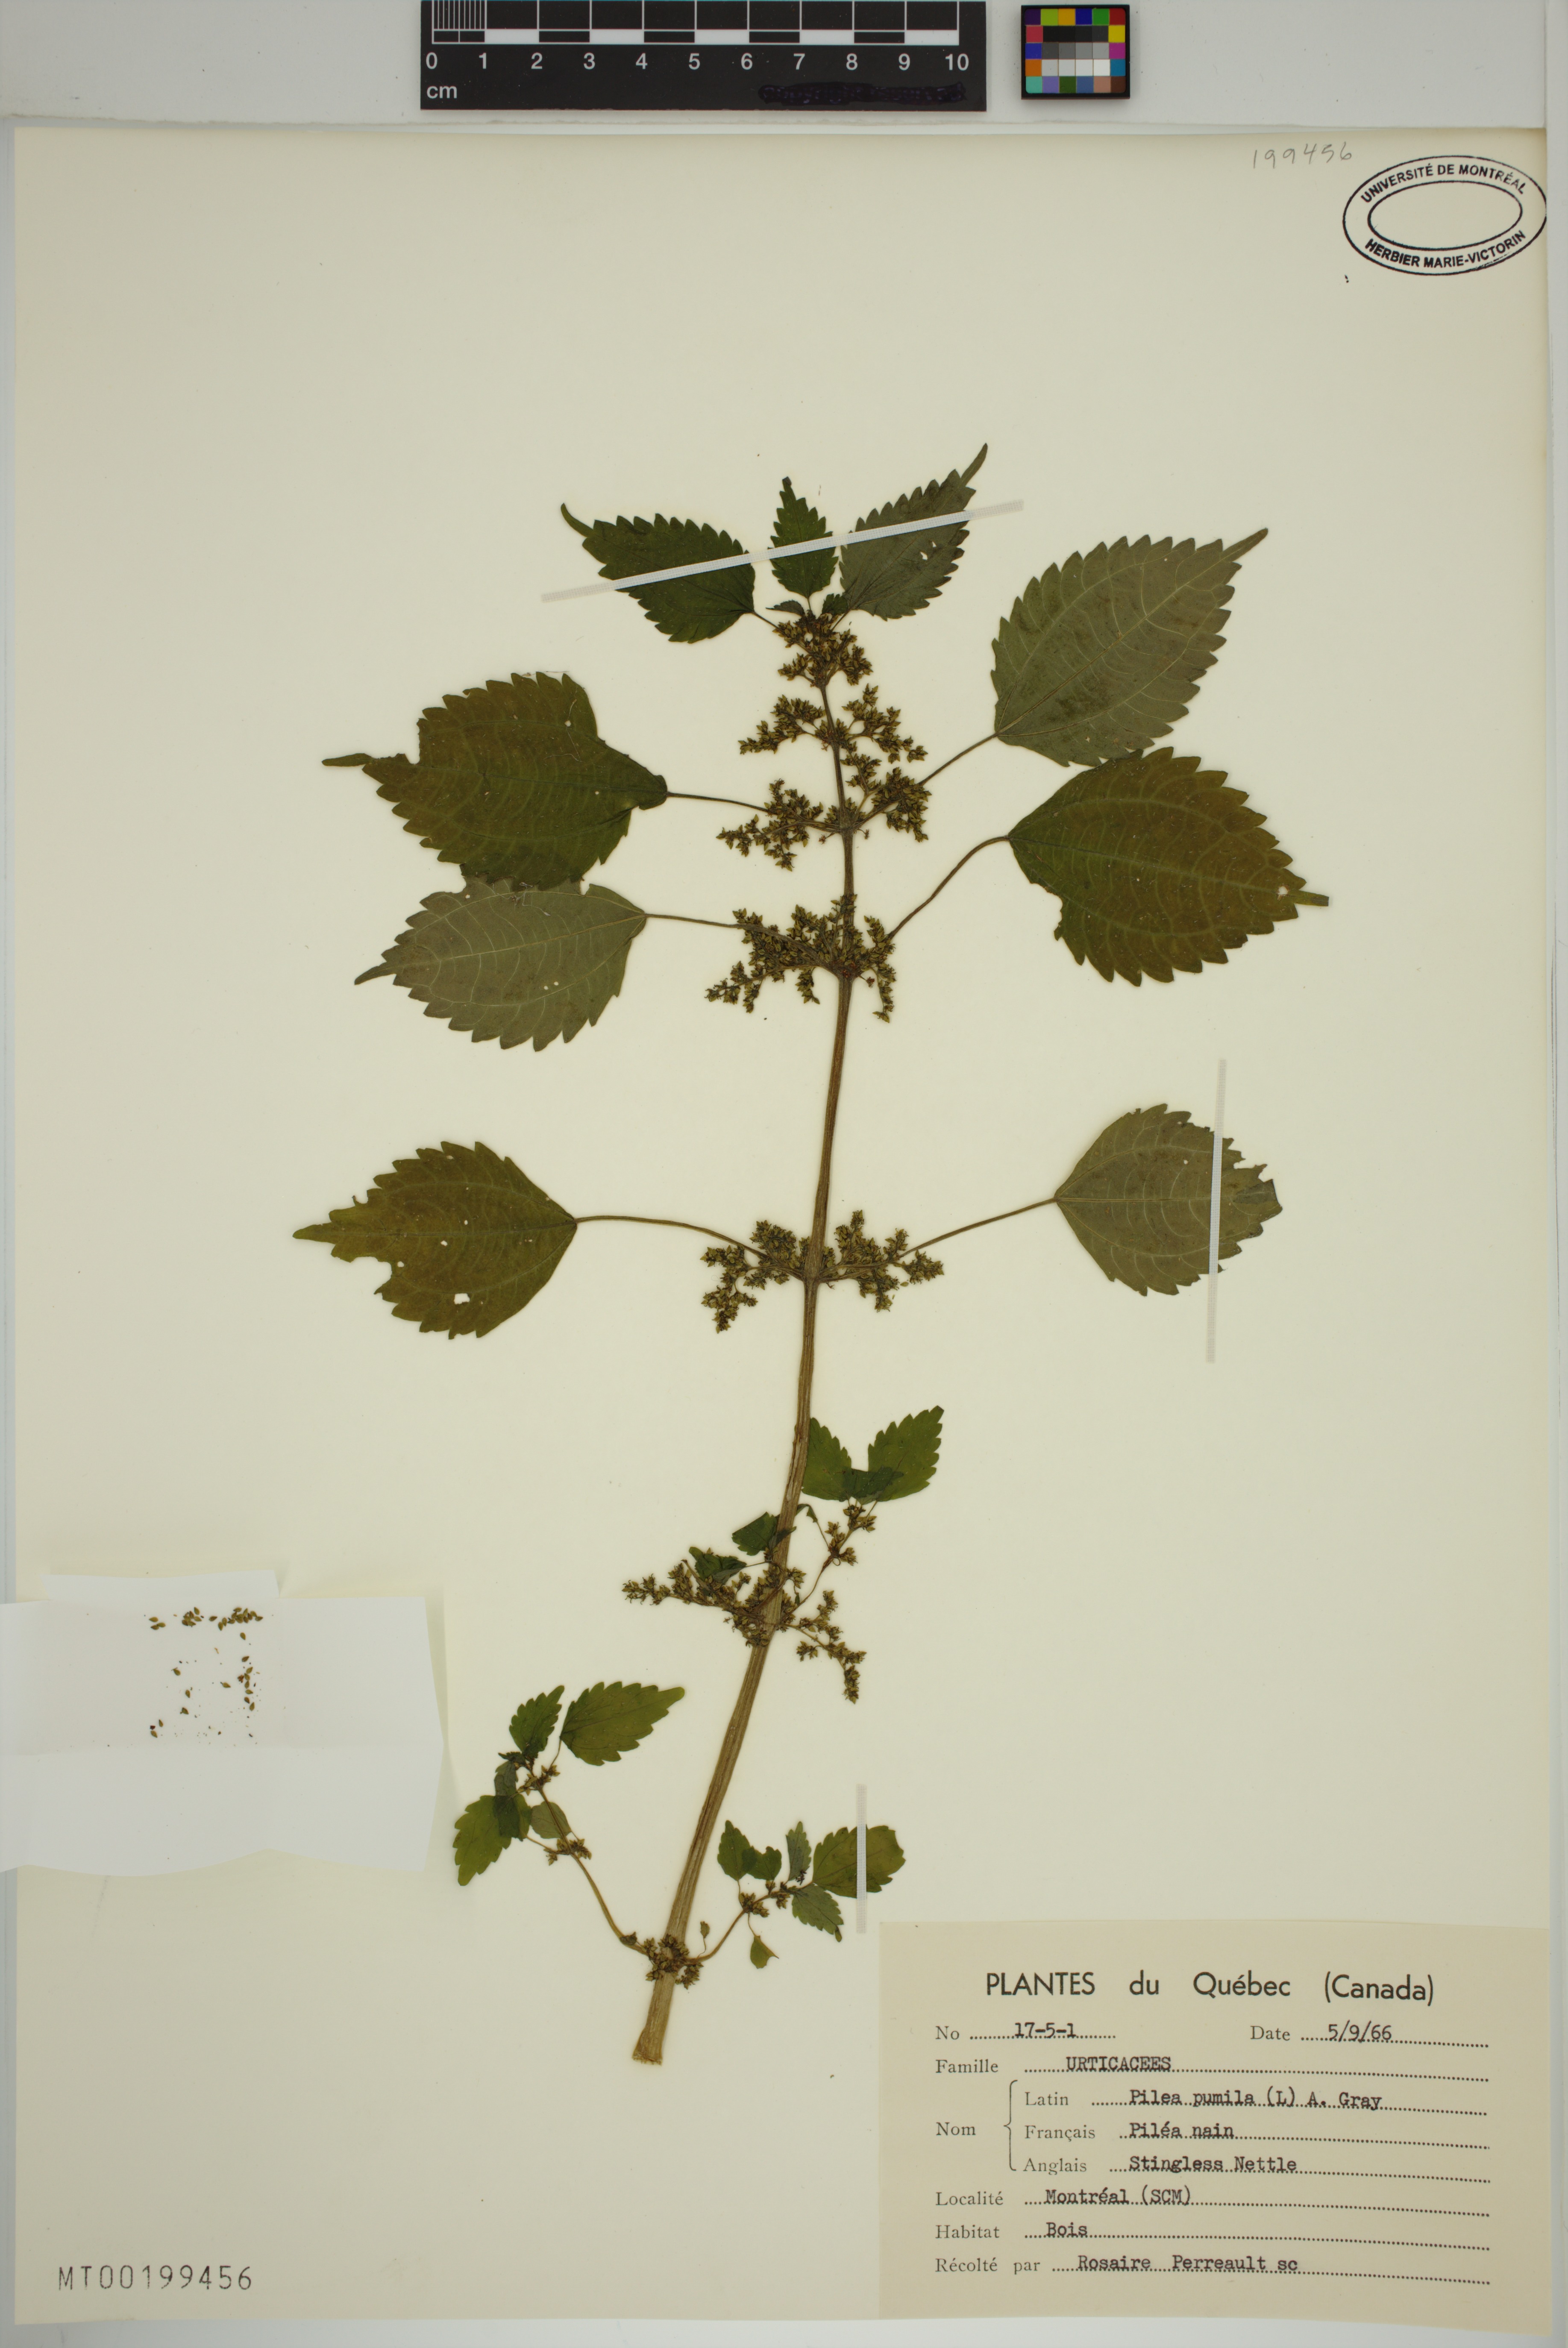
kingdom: Plantae
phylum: Tracheophyta
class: Magnoliopsida
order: Rosales
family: Urticaceae
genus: Pilea
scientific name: Pilea pumila
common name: Clearweed
